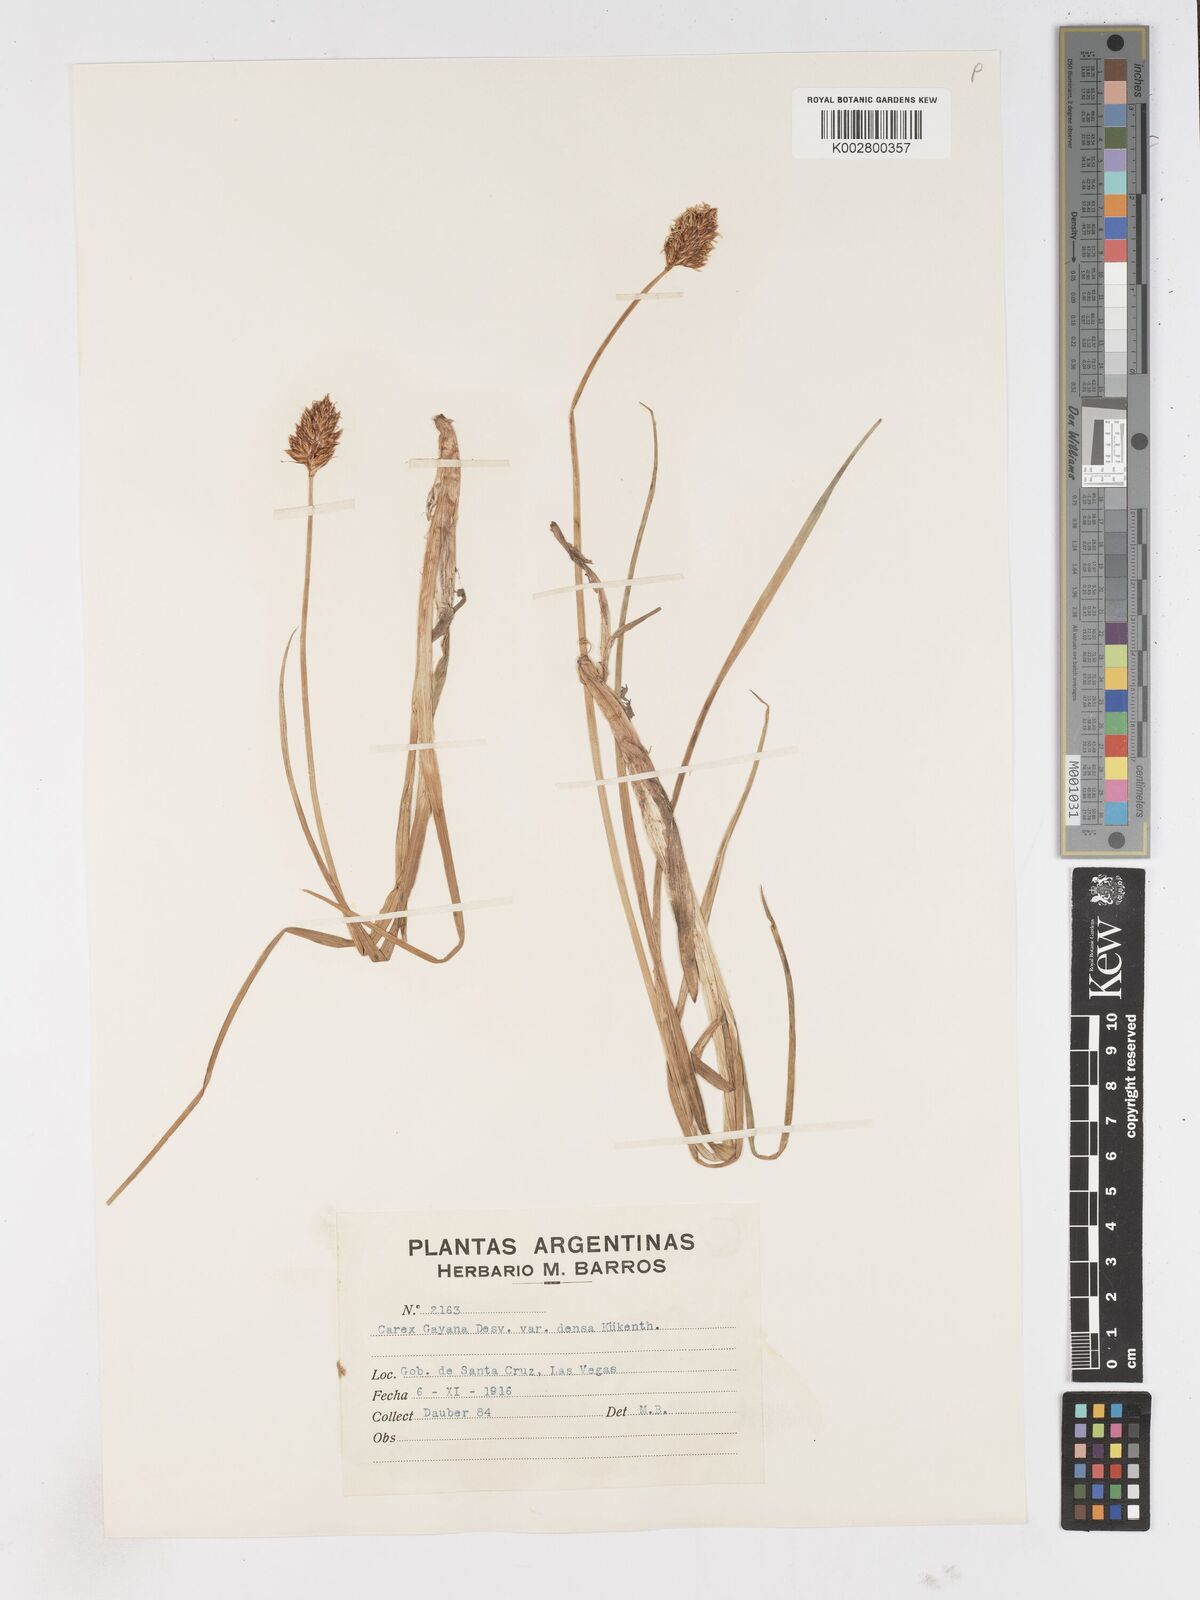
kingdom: Plantae
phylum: Tracheophyta
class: Liliopsida
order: Poales
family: Cyperaceae
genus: Carex
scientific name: Carex gayana
